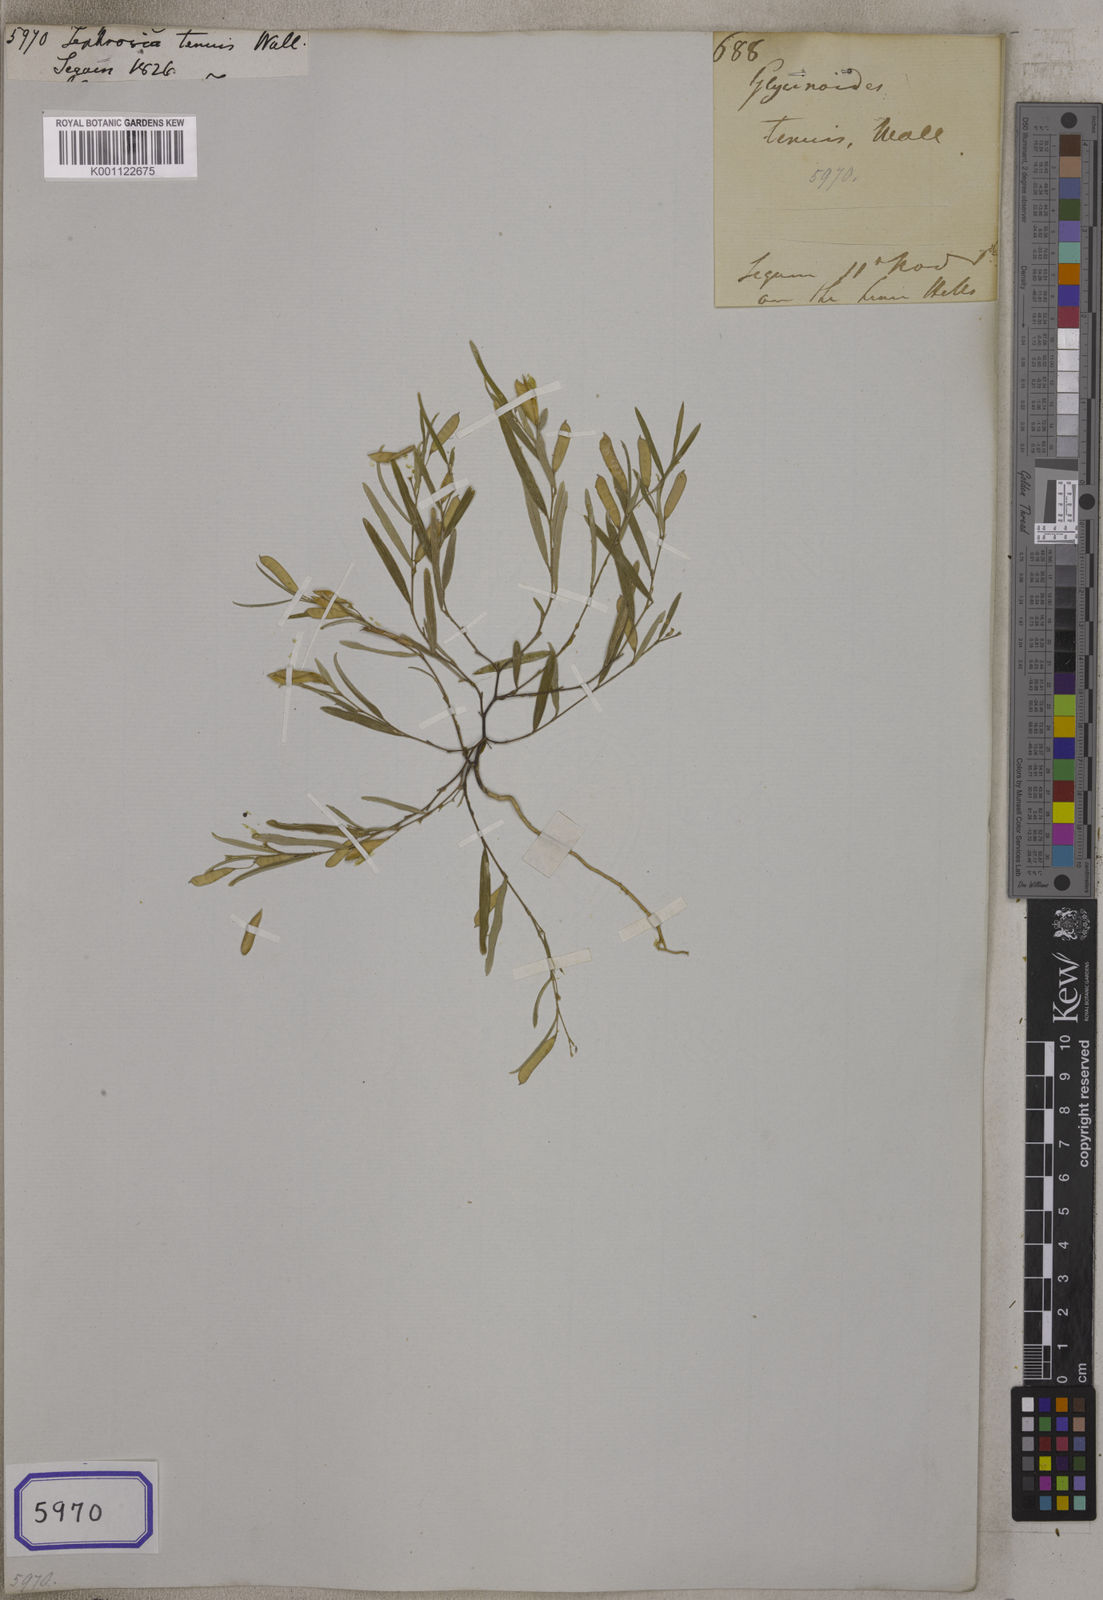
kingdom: Plantae
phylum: Tracheophyta
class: Magnoliopsida
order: Fabales
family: Fabaceae
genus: Tephrosia
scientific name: Tephrosia
